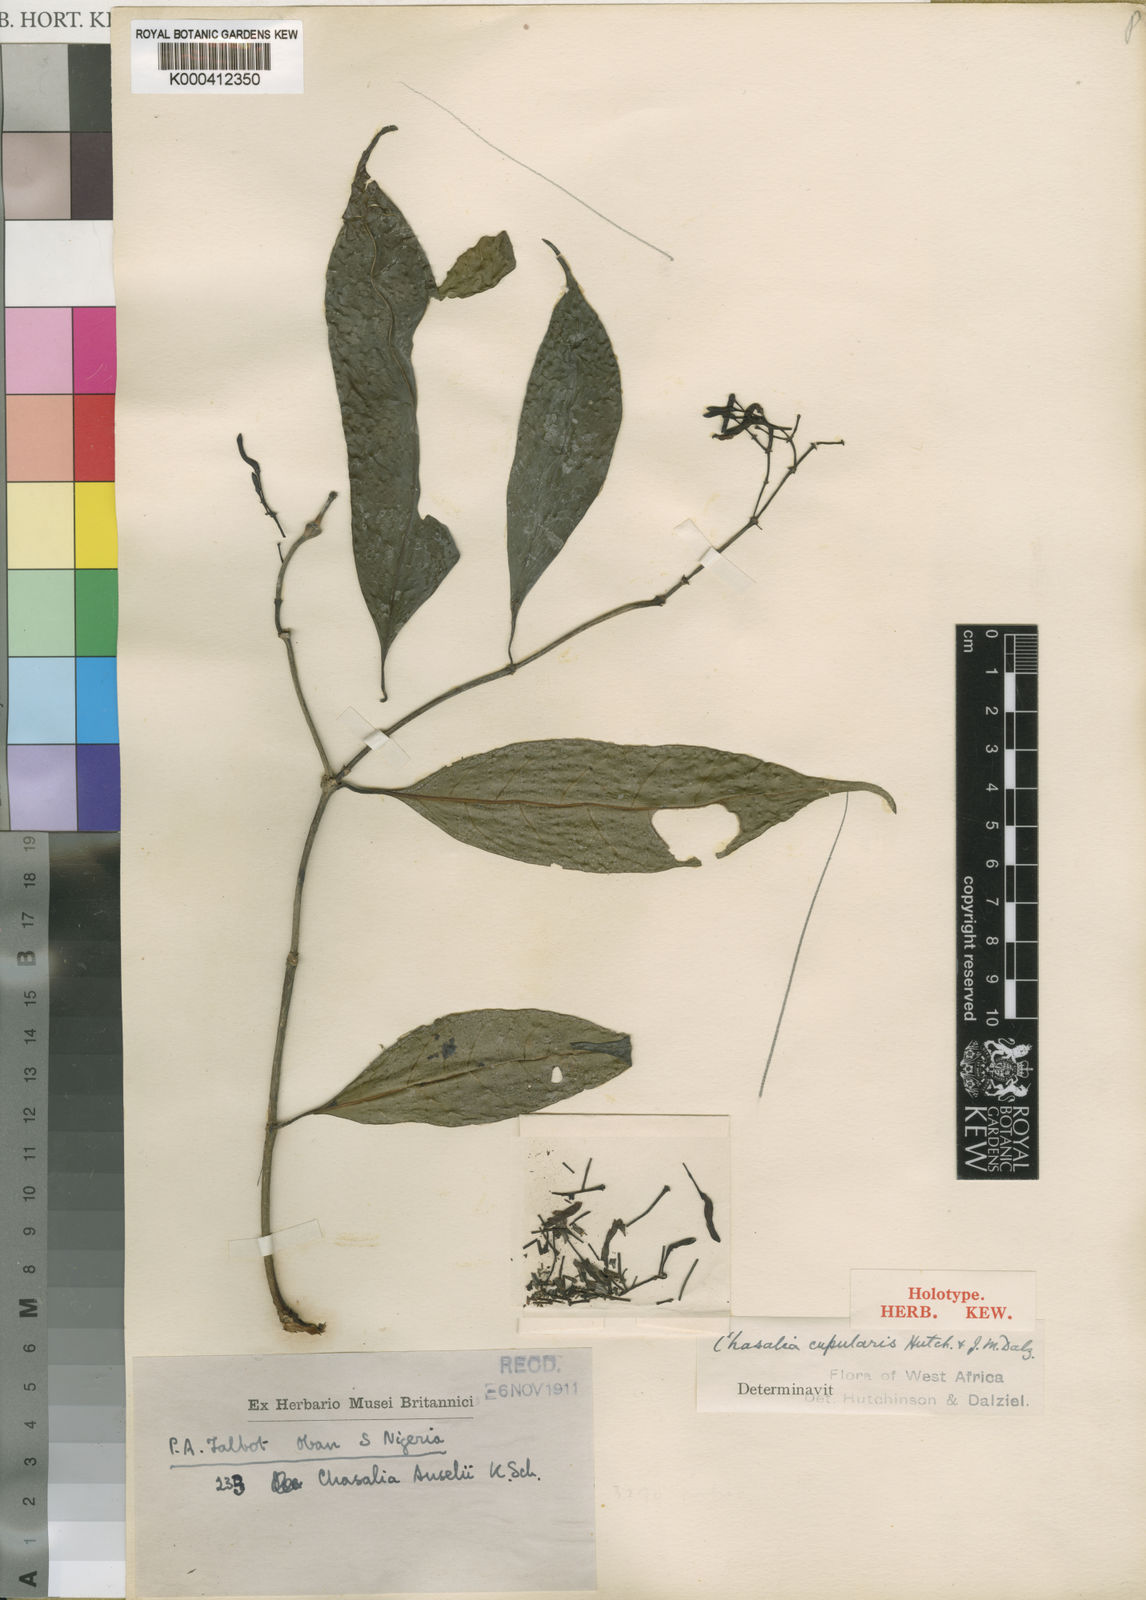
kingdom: Plantae
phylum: Tracheophyta
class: Magnoliopsida
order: Gentianales
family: Rubiaceae
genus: Chassalia
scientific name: Chassalia cupularis
